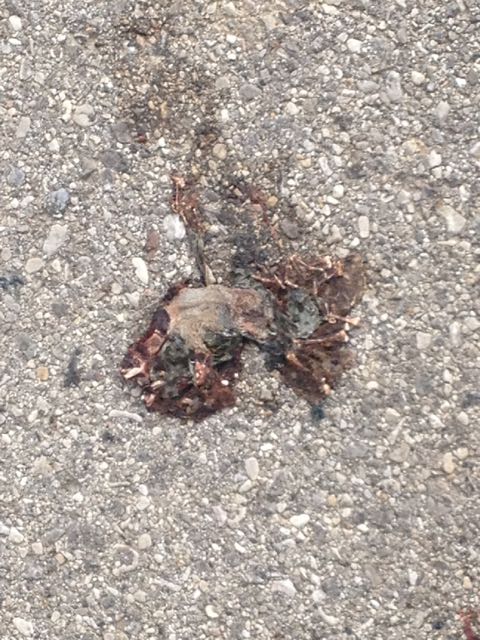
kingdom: Animalia
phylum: Chordata
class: Amphibia
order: Anura
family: Bufonidae
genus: Bufotes
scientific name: Bufotes viridis
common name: European green toad
